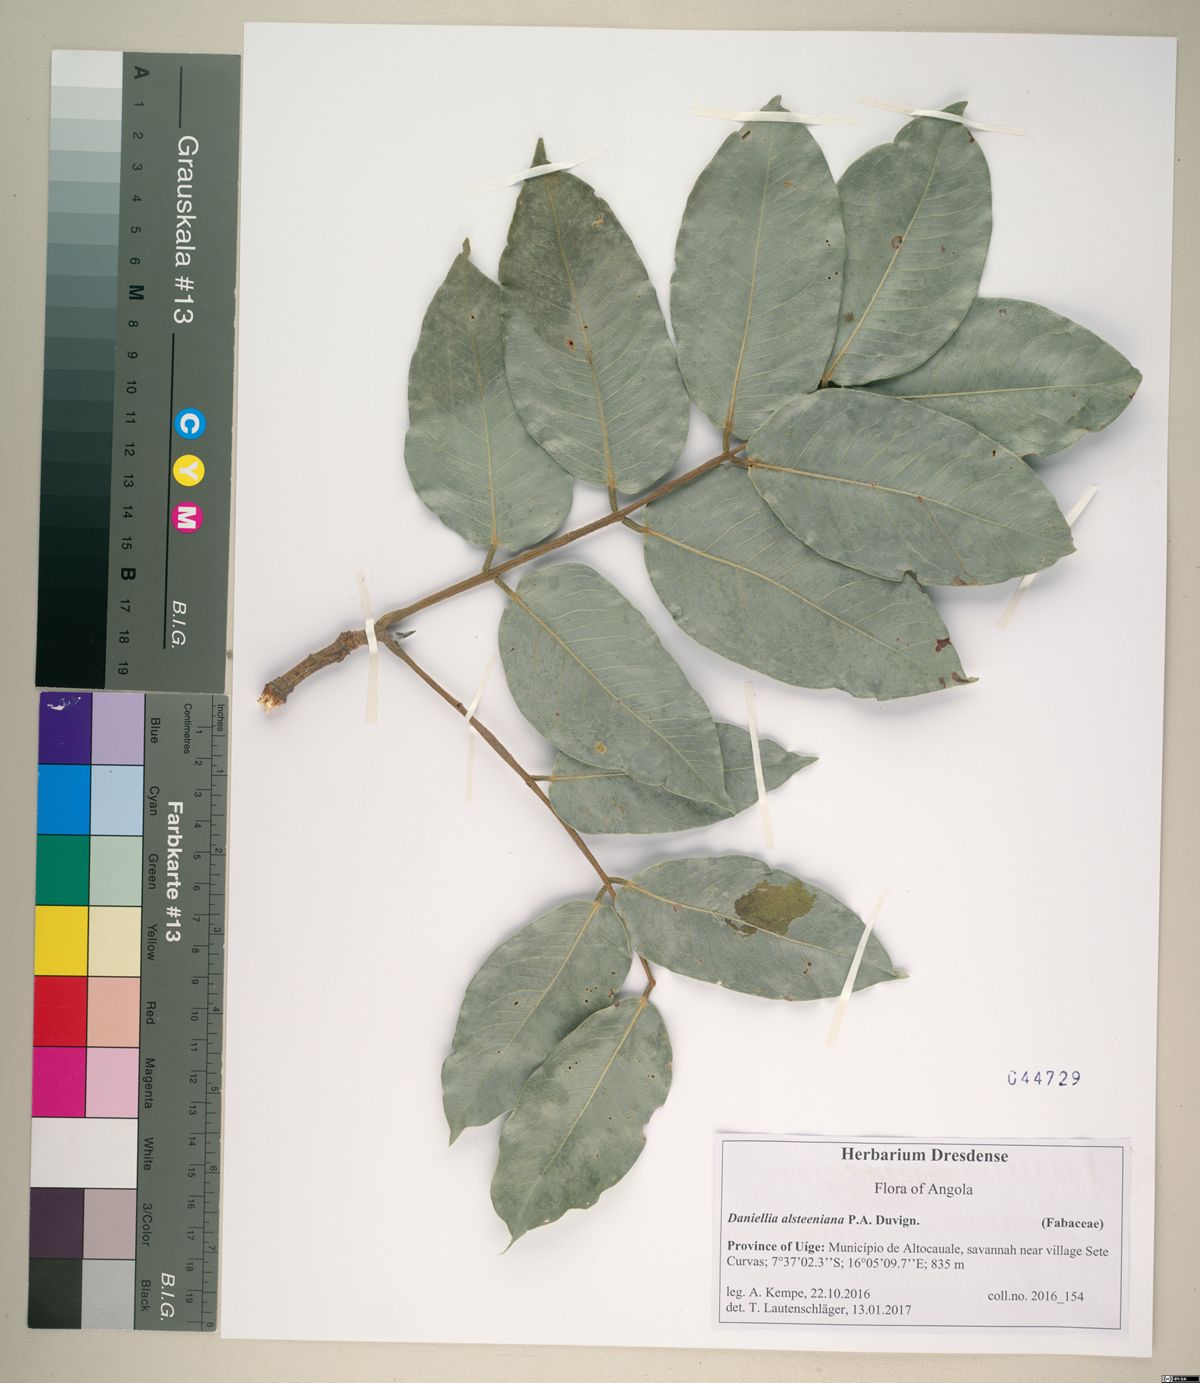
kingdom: Plantae
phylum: Tracheophyta
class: Magnoliopsida
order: Fabales
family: Fabaceae
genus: Daniellia
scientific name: Daniellia alsteeniana
